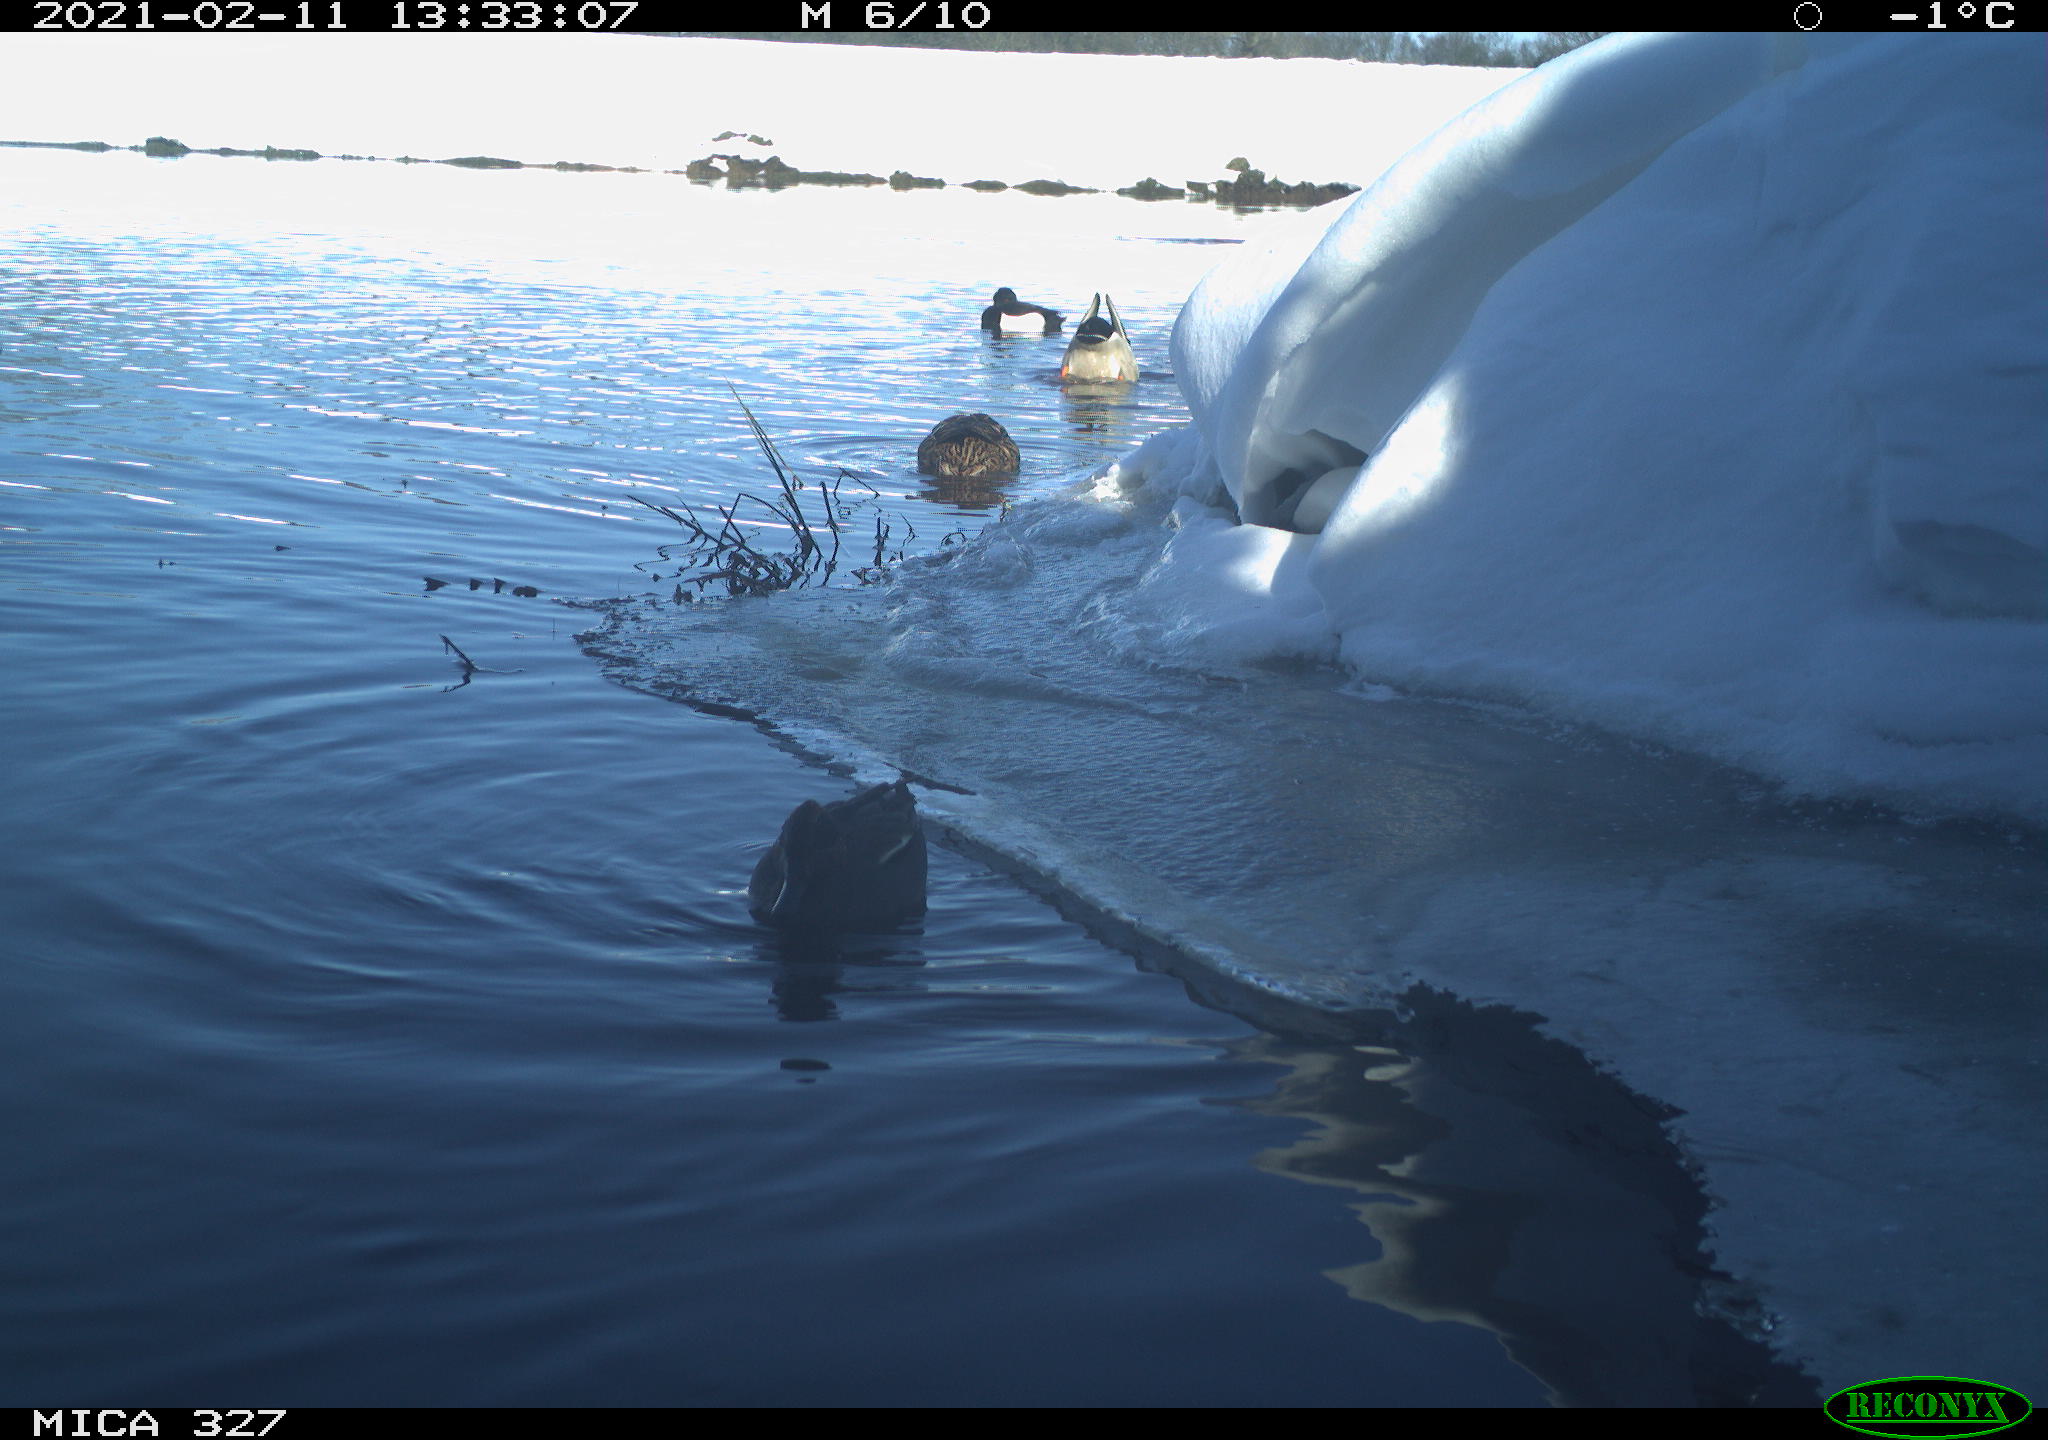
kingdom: Animalia
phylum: Chordata
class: Aves
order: Anseriformes
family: Anatidae
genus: Anas
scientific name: Anas
